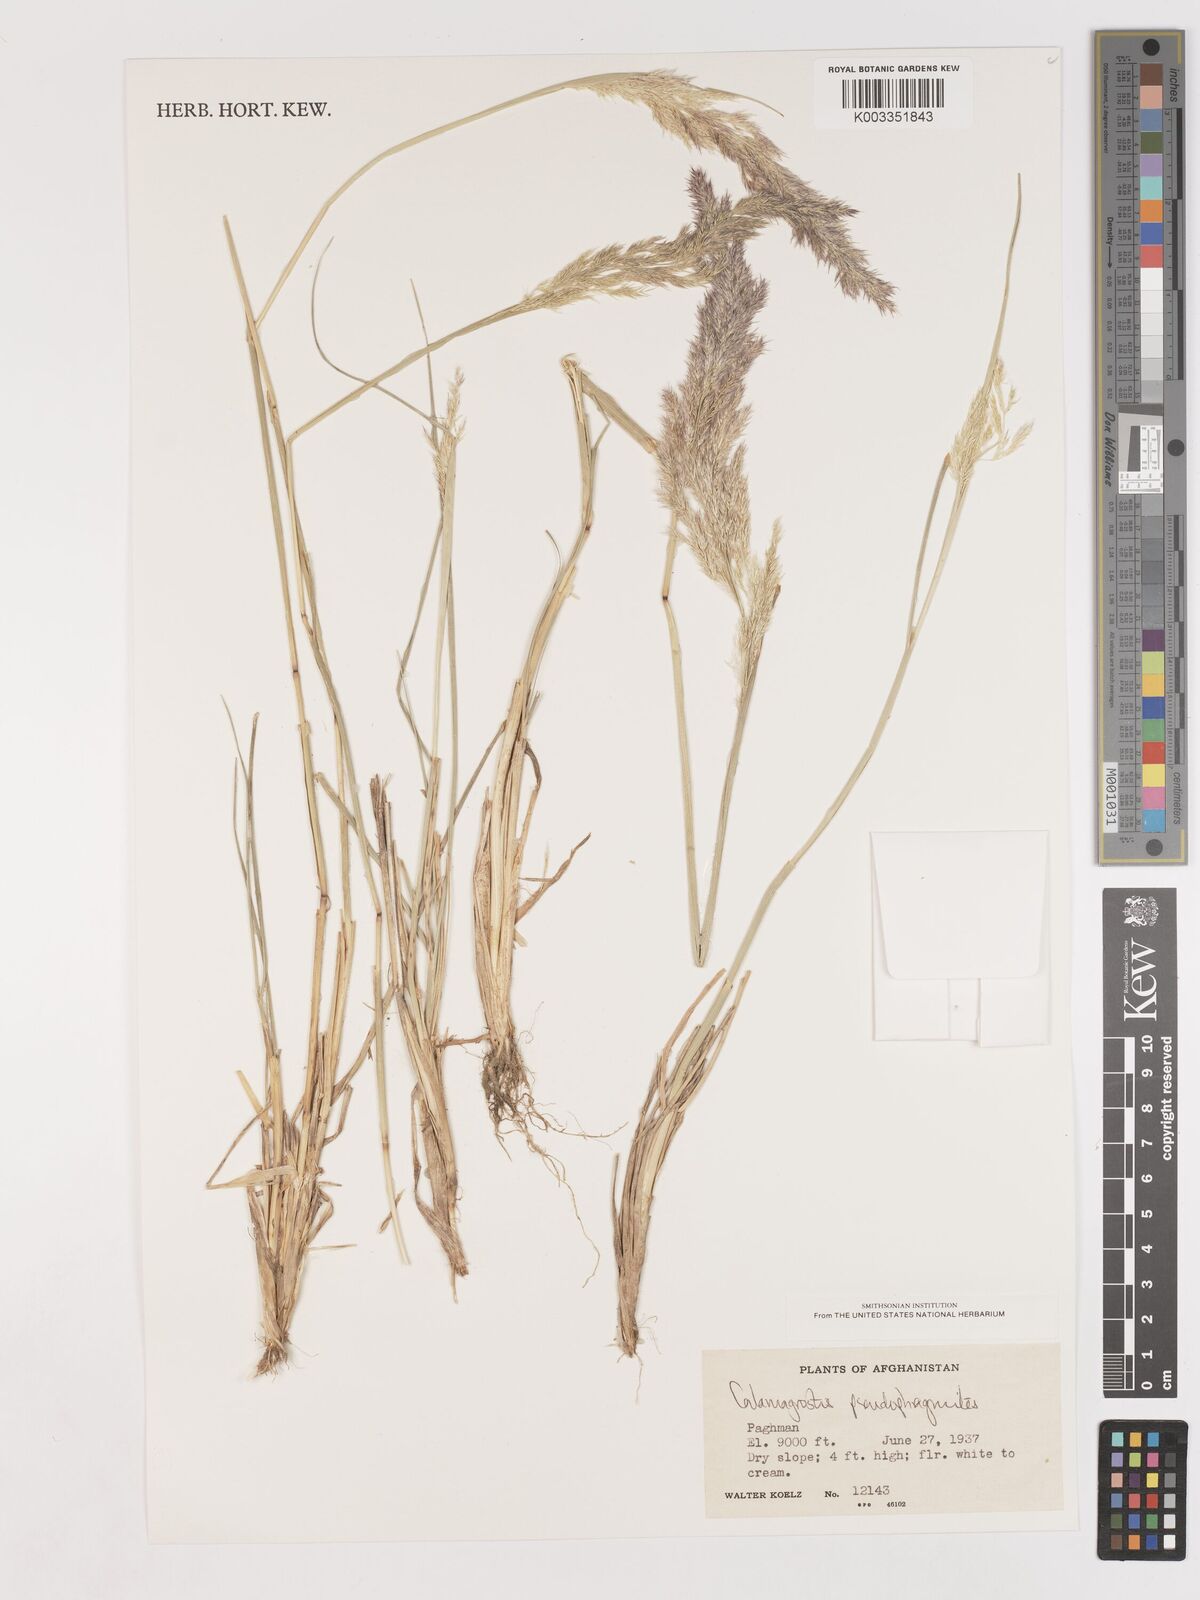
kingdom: Plantae
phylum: Tracheophyta
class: Liliopsida
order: Poales
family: Poaceae
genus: Calamagrostis
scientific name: Calamagrostis purpurea
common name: Scandinavian small-reed
